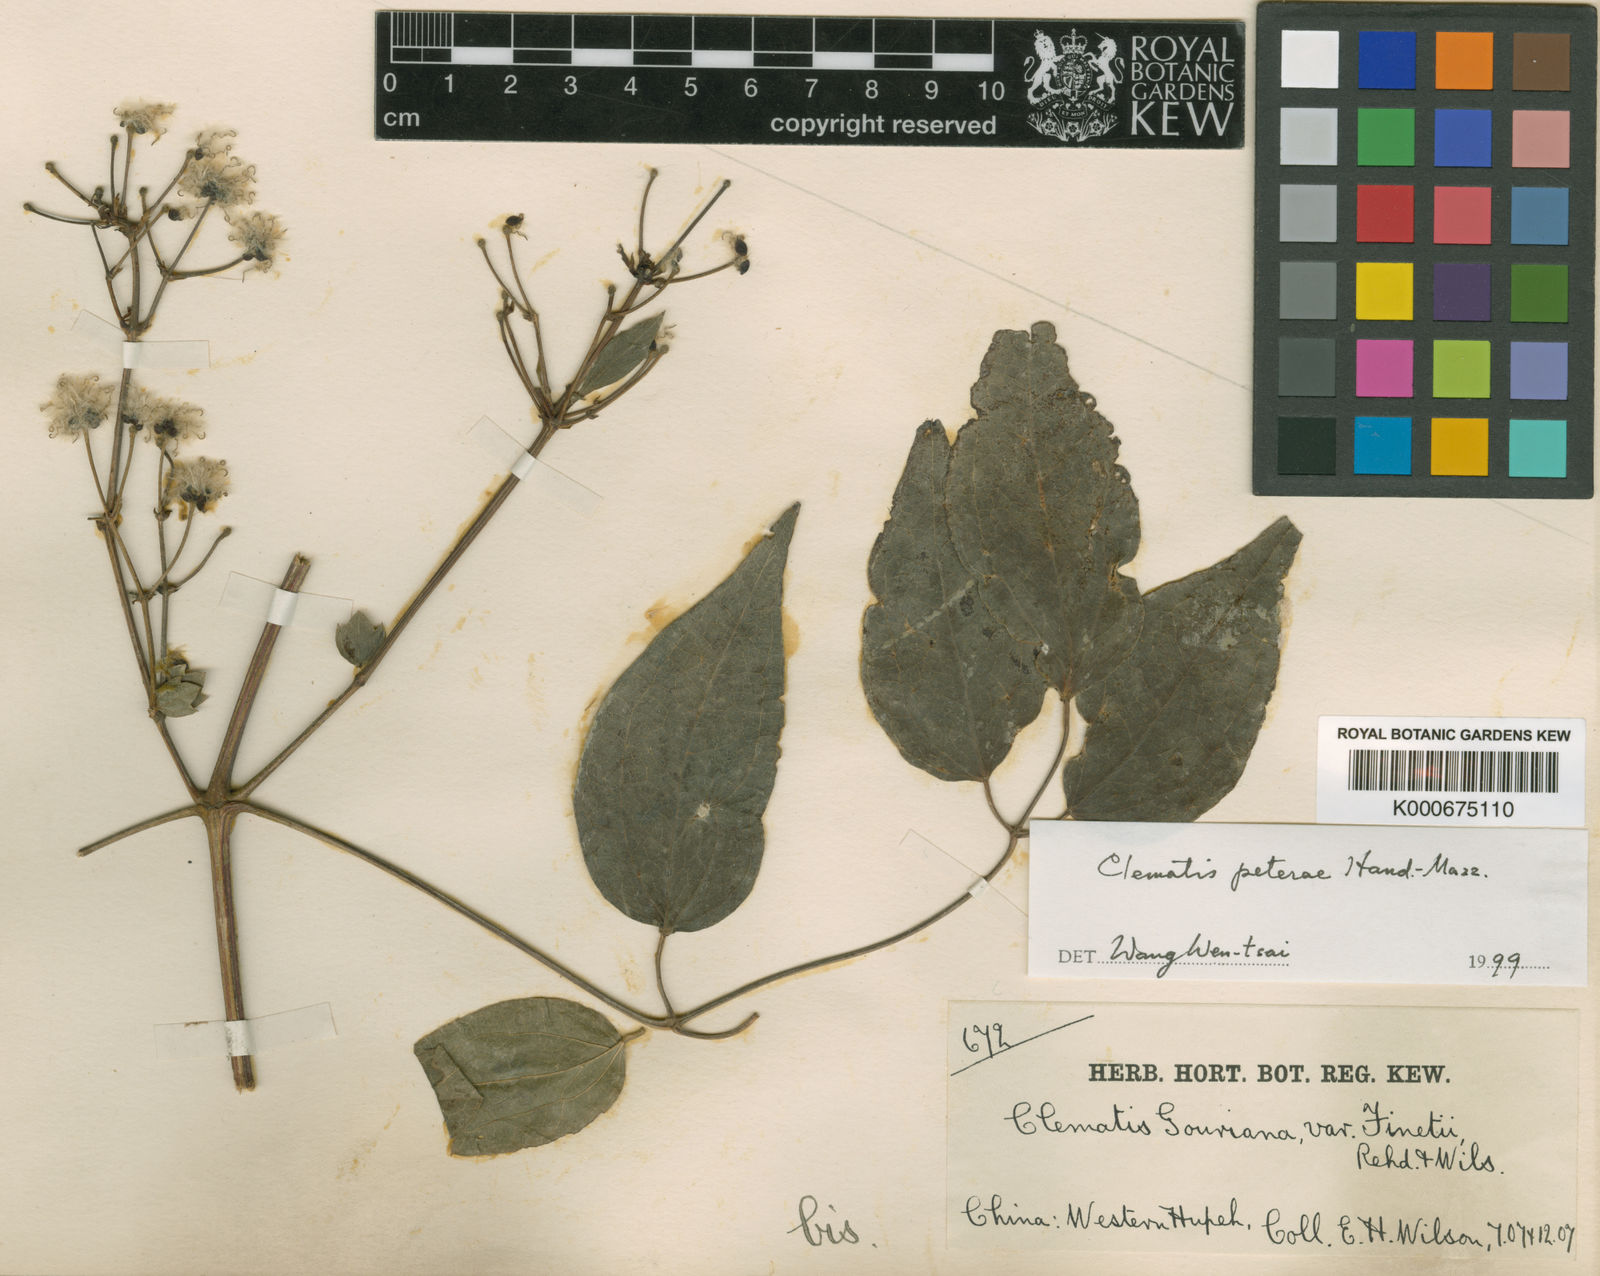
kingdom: Plantae
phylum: Tracheophyta
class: Magnoliopsida
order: Ranunculales
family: Ranunculaceae
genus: Clematis
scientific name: Clematis peterae
